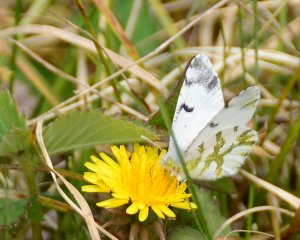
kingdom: Animalia
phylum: Arthropoda
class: Insecta
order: Lepidoptera
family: Pieridae
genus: Euchloe
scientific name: Euchloe olympia
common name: Olympia Marble
